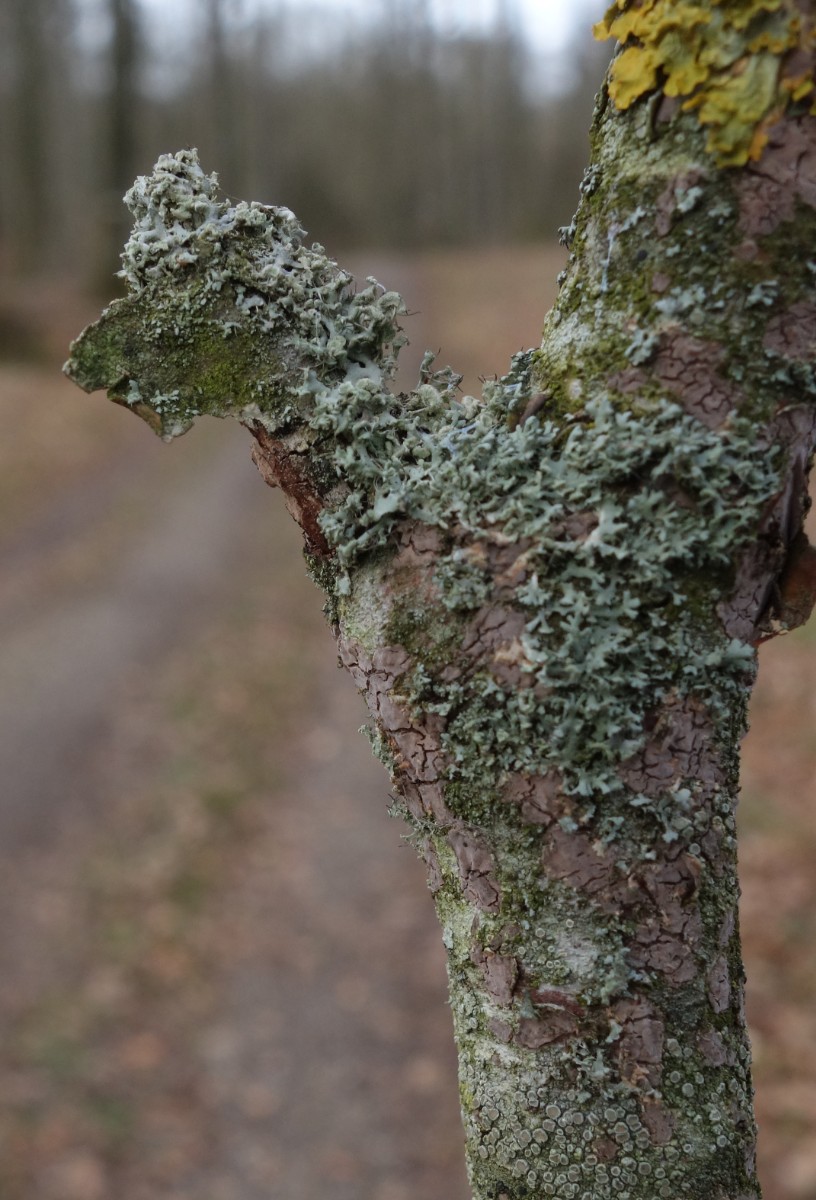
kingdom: Fungi
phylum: Ascomycota
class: Lecanoromycetes
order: Caliciales
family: Physciaceae
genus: Physcia
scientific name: Physcia tenella
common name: spæd rosetlav
